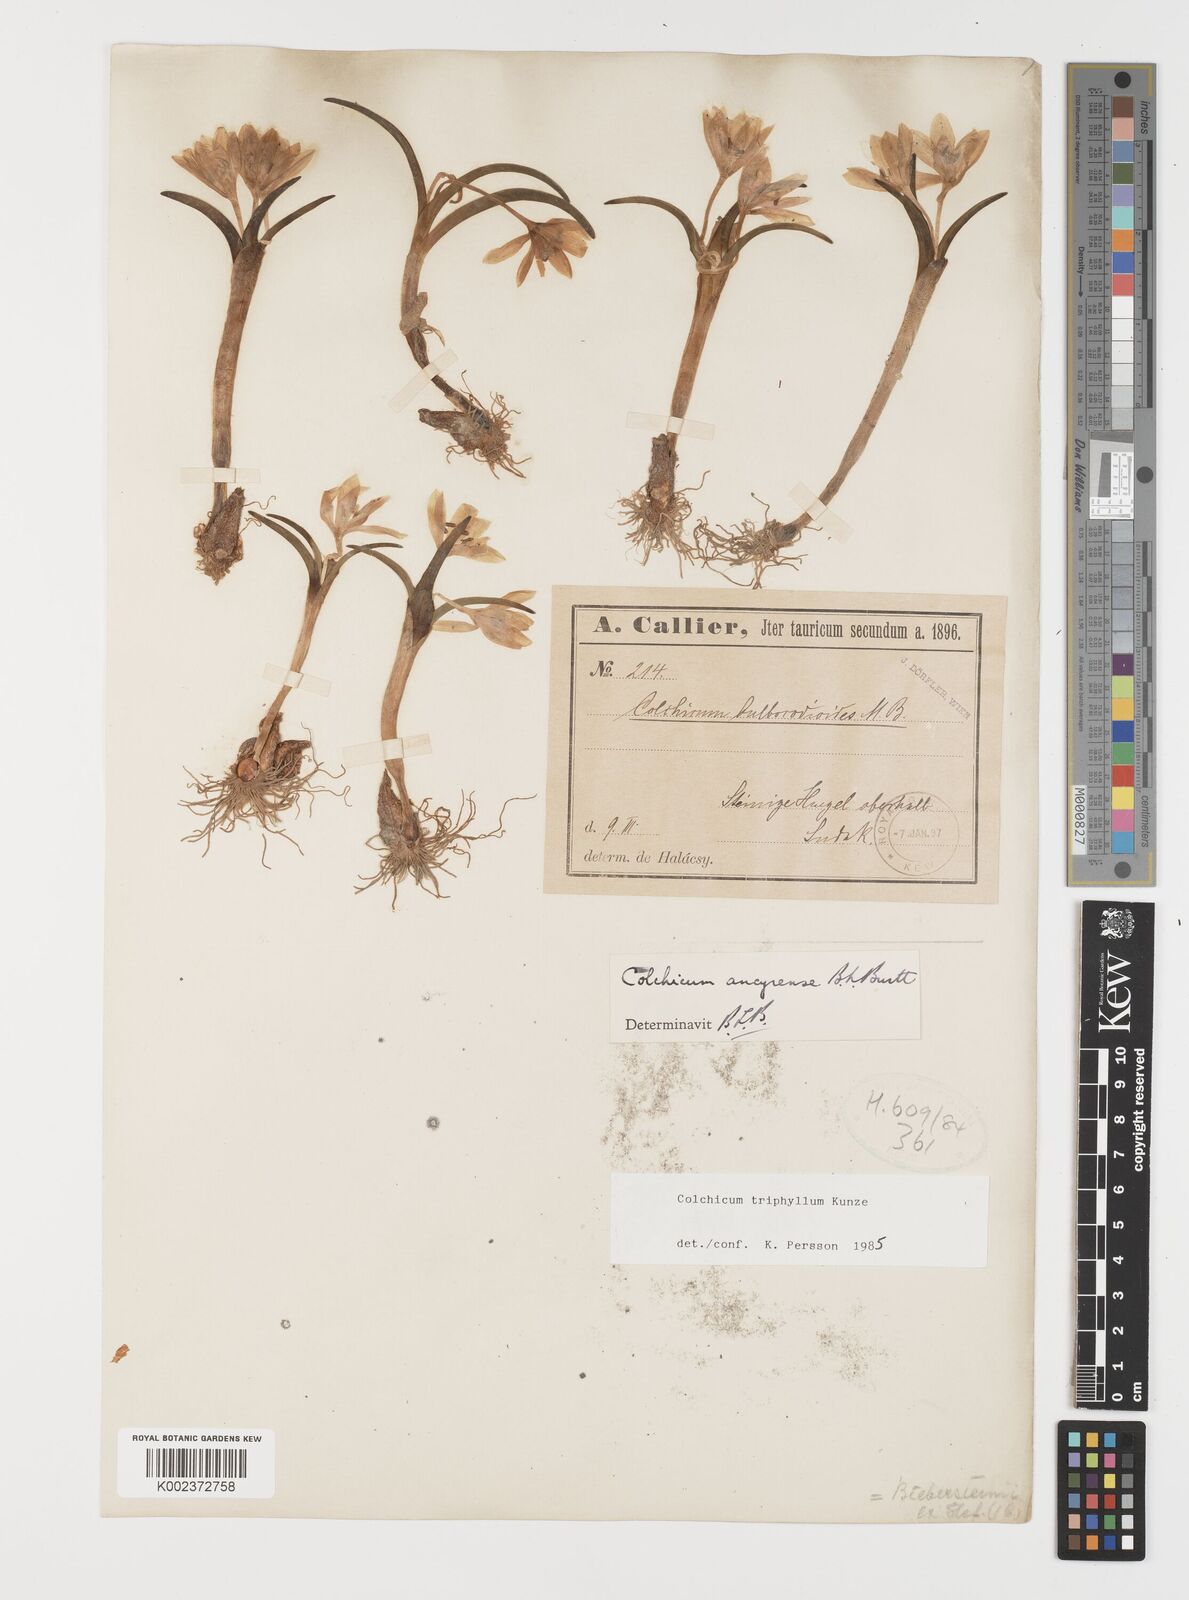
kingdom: Plantae
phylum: Tracheophyta
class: Liliopsida
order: Liliales
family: Colchicaceae
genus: Colchicum
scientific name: Colchicum triphyllum
